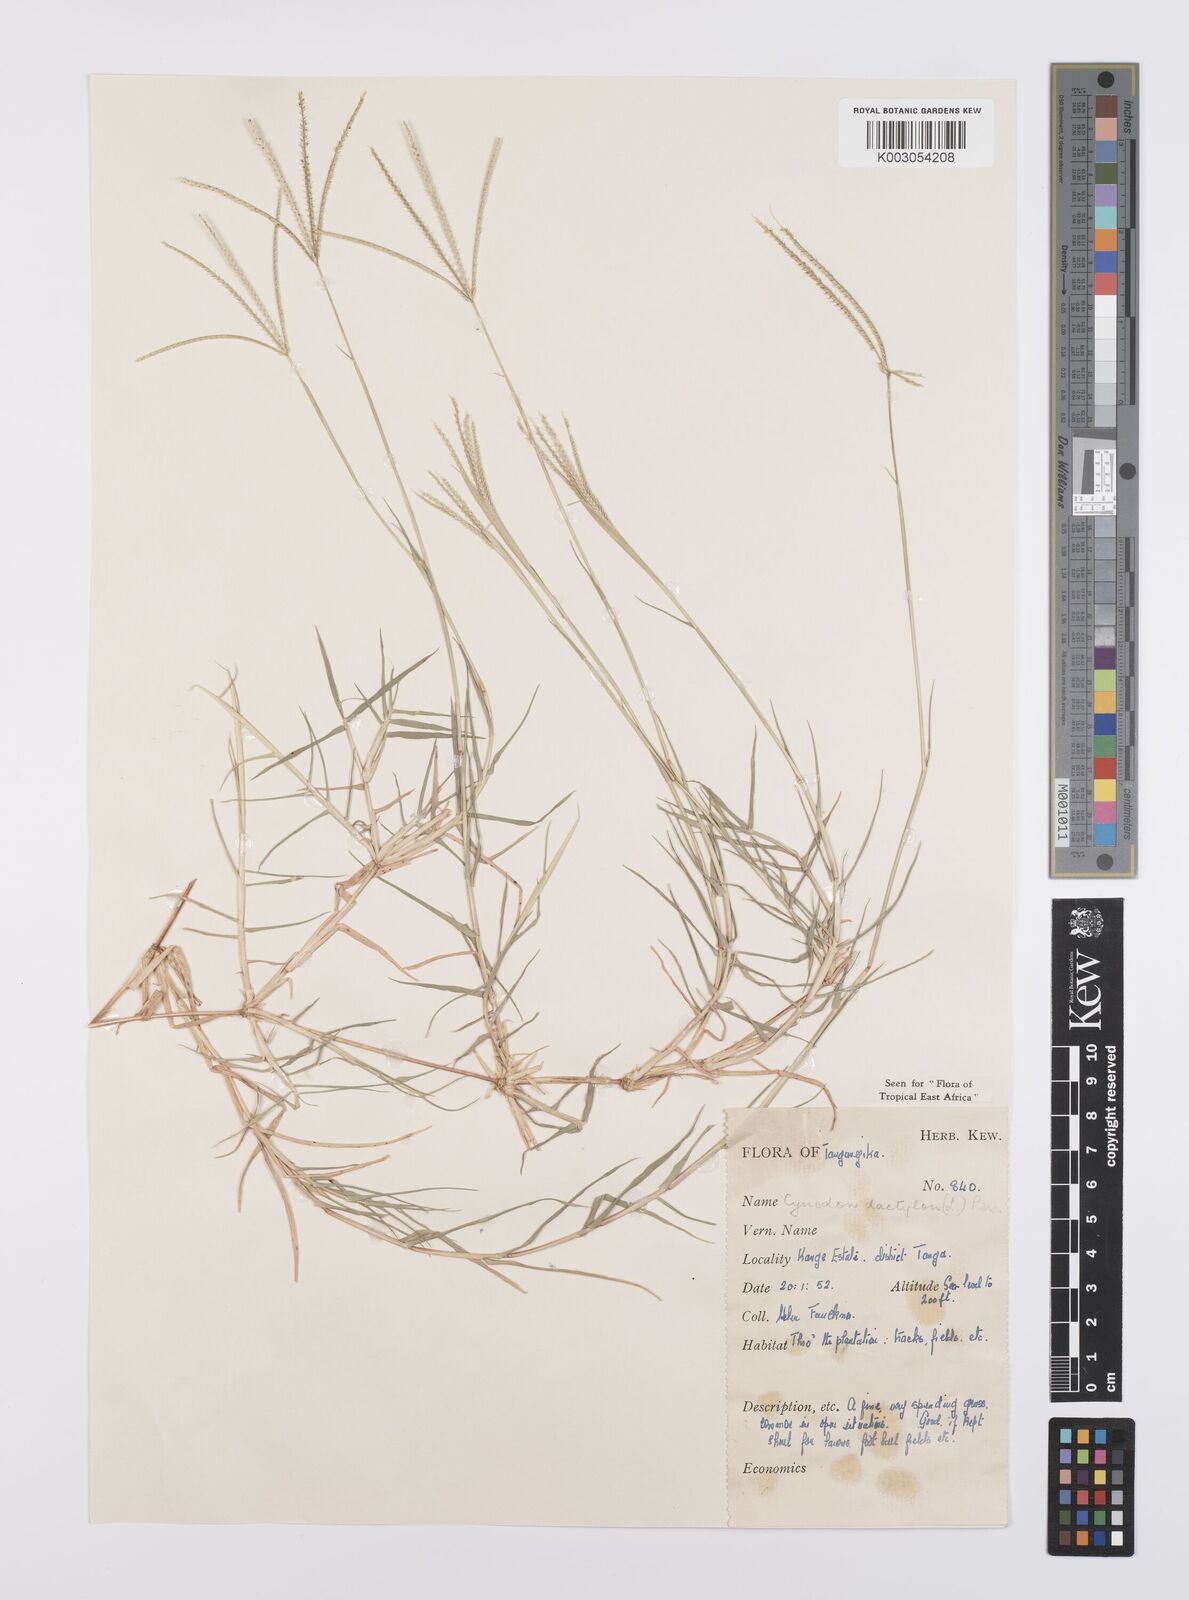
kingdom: Plantae
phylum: Tracheophyta
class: Liliopsida
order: Poales
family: Poaceae
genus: Cynodon
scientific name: Cynodon dactylon
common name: Bermuda grass
